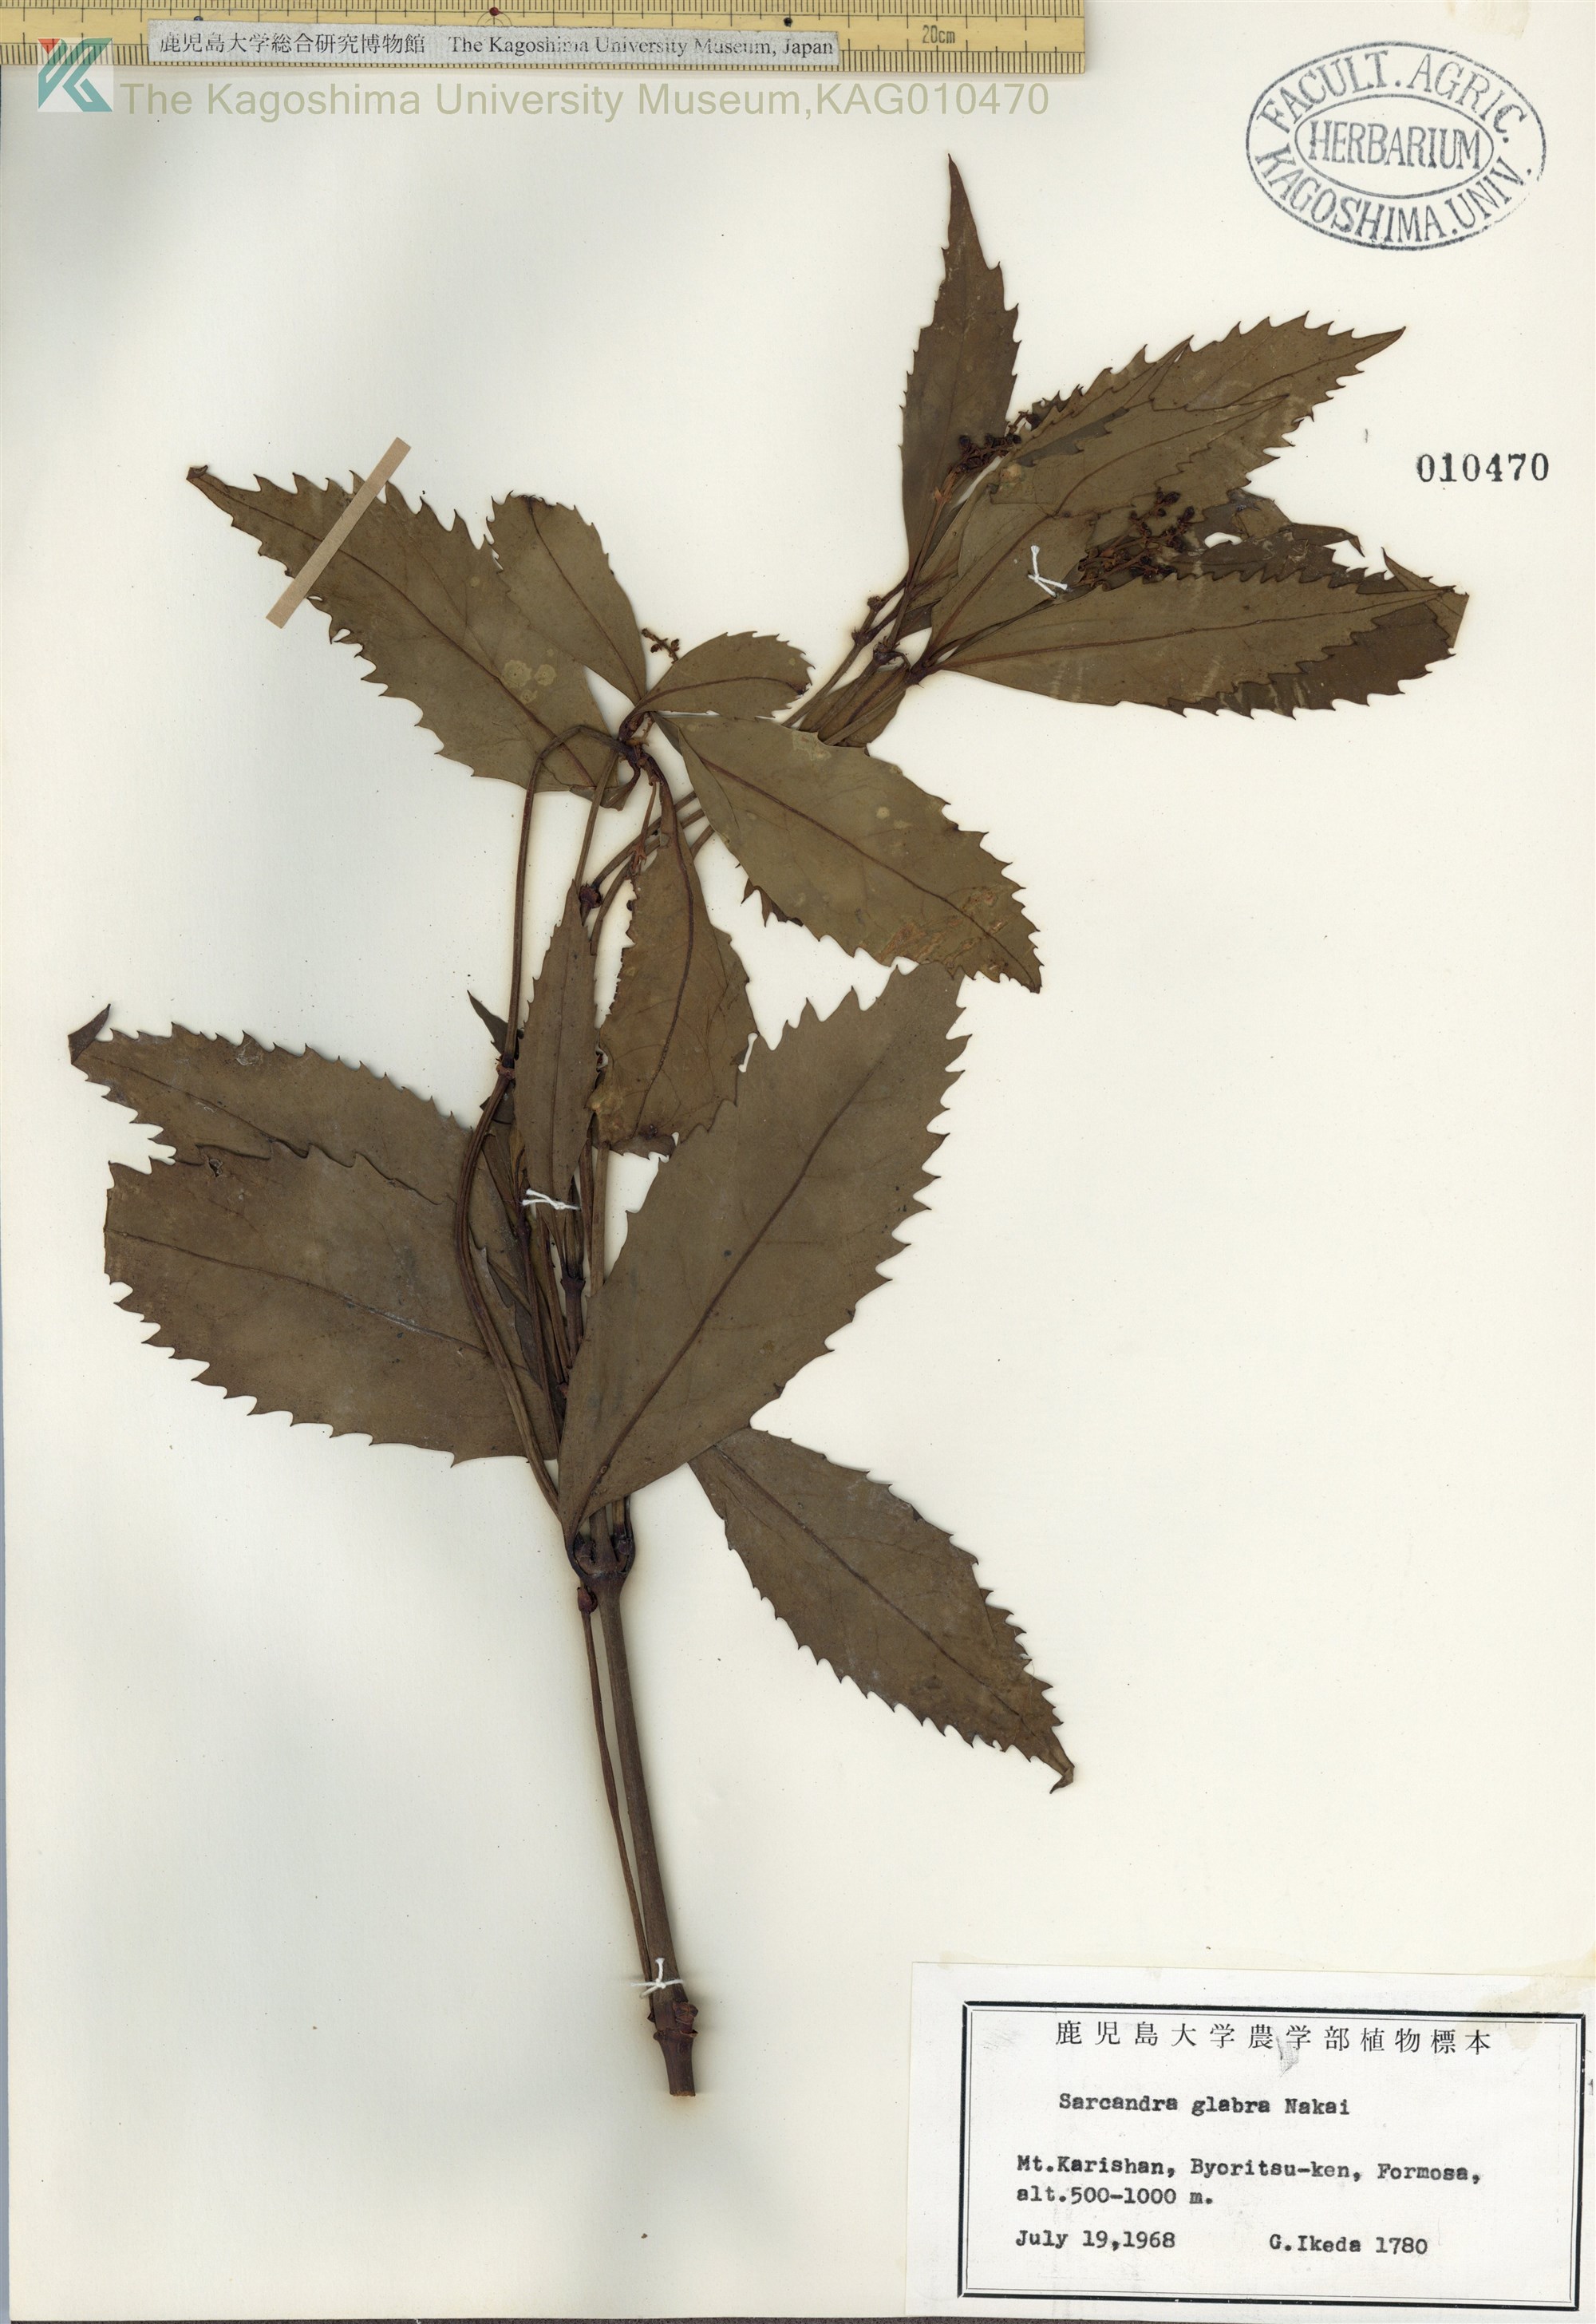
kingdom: Plantae
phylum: Tracheophyta
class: Magnoliopsida
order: Chloranthales
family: Chloranthaceae
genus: Sarcandra
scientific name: Sarcandra glabra
